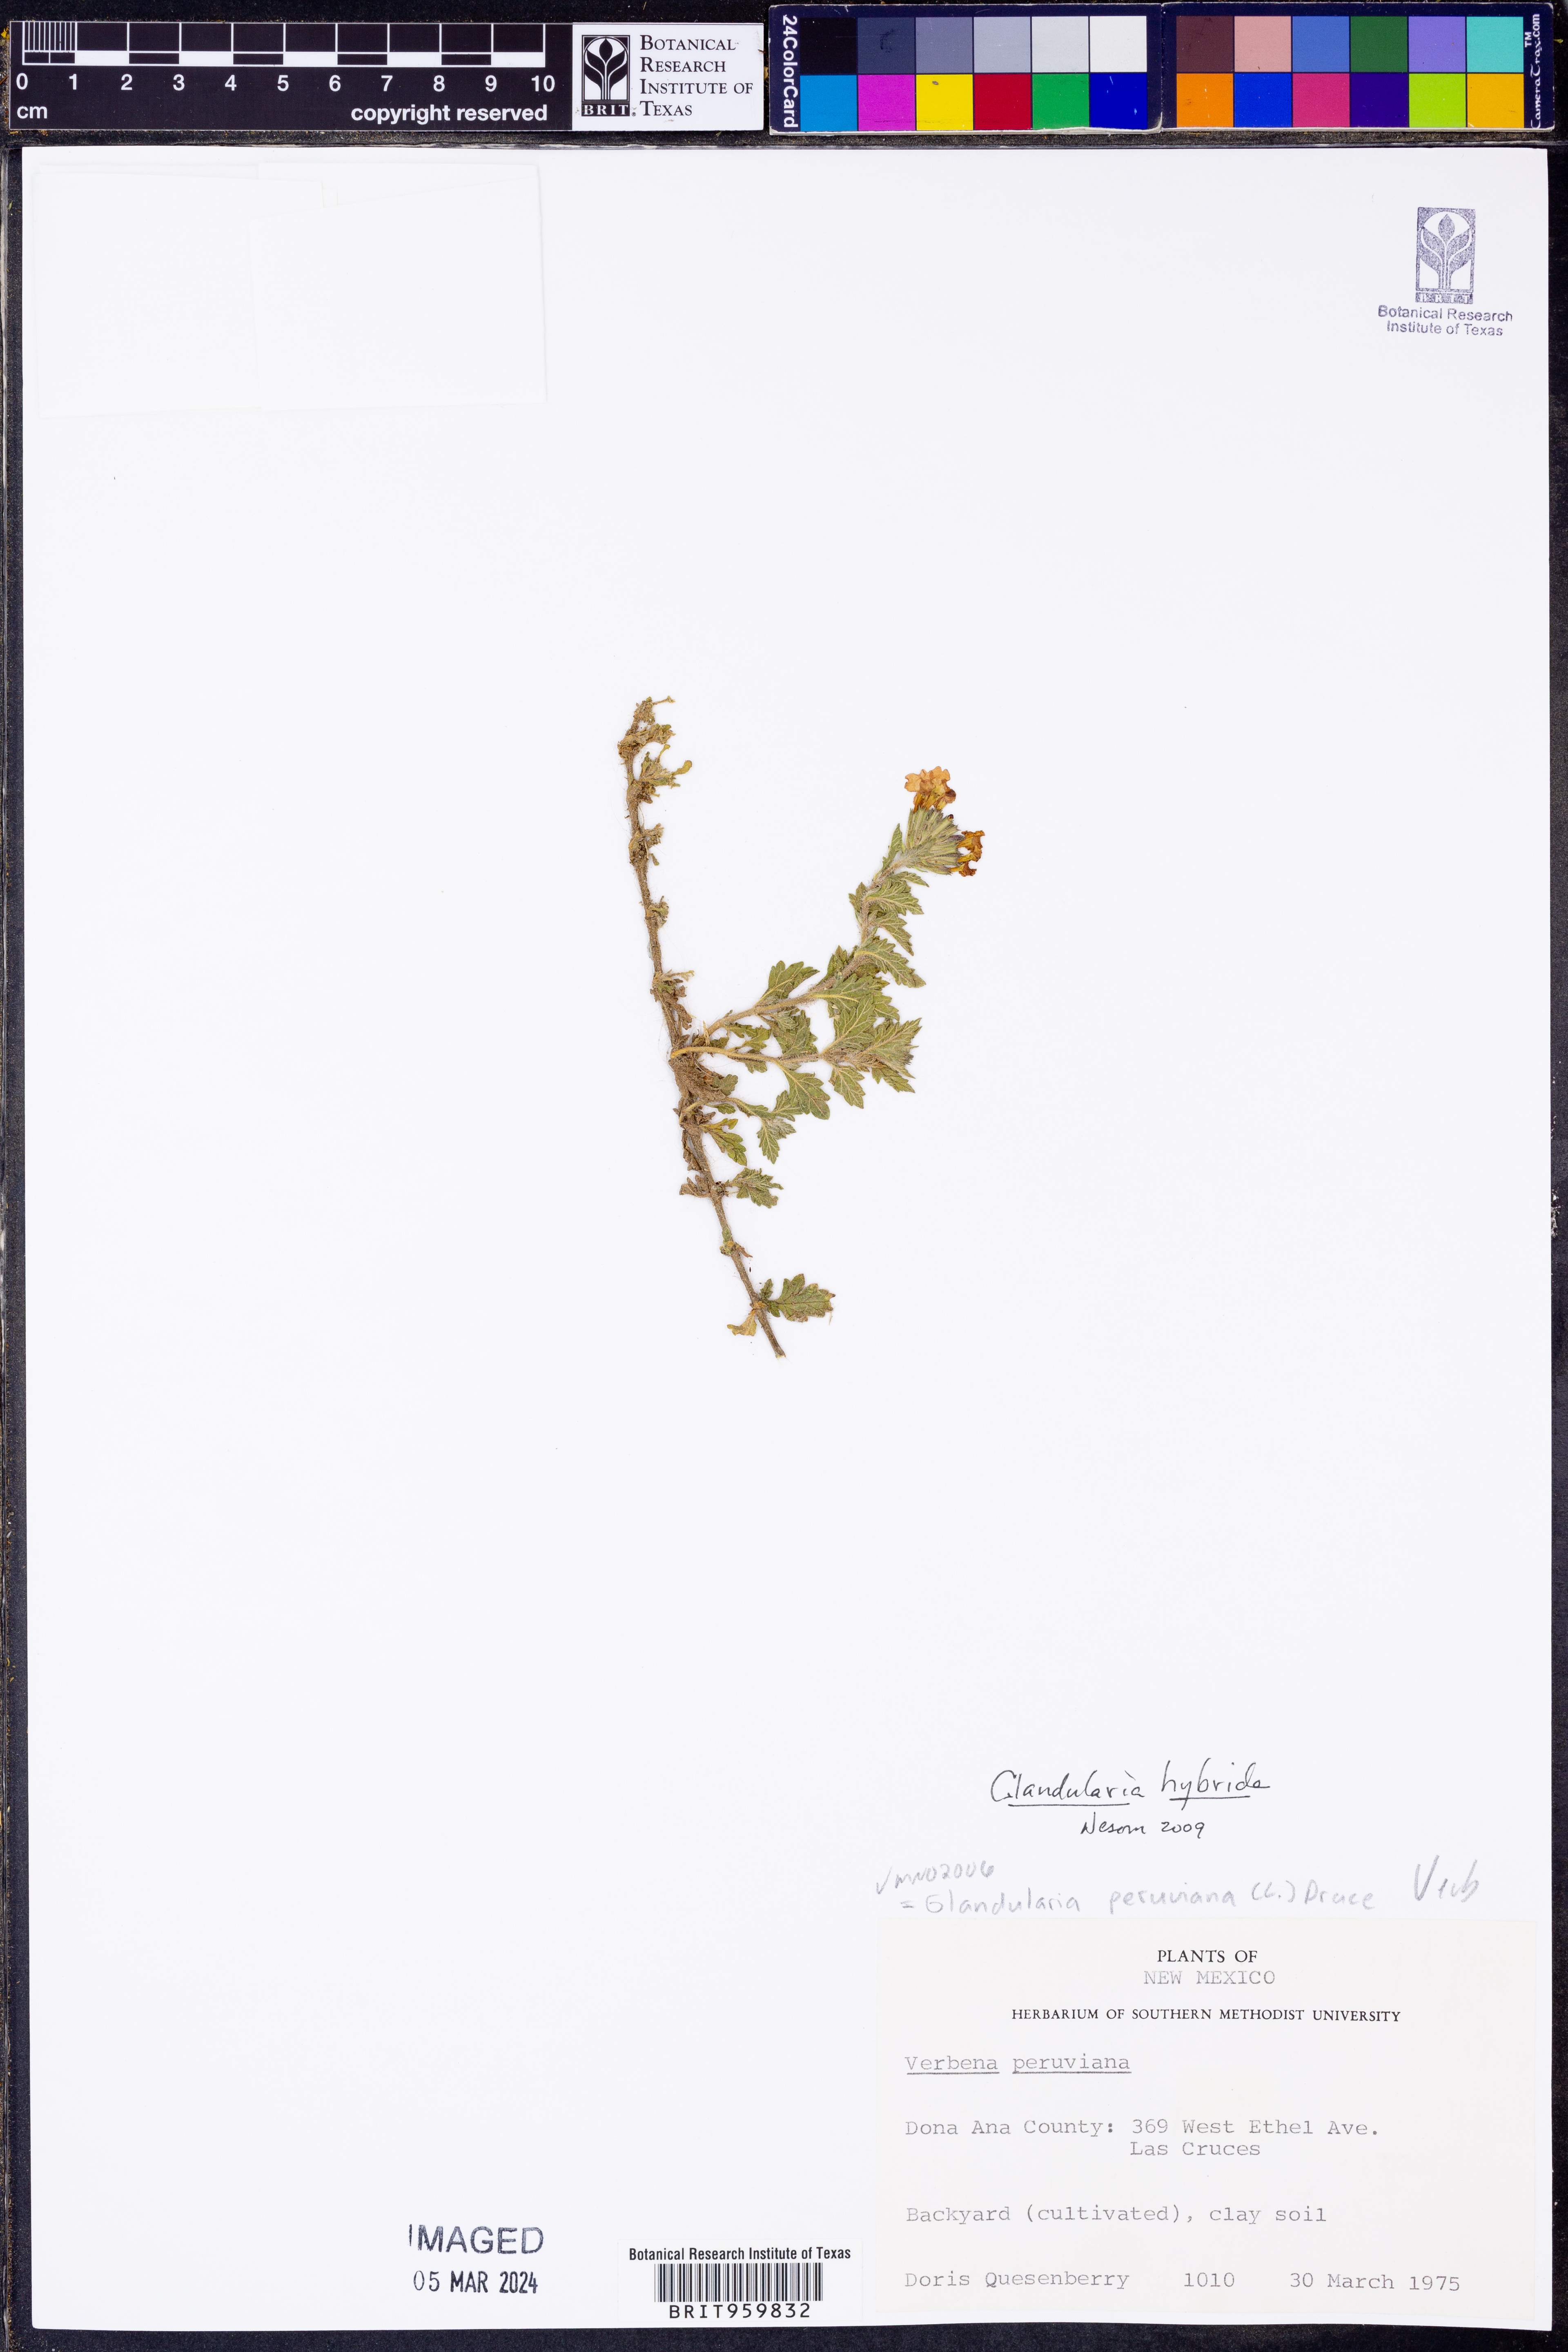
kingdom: Plantae
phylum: Tracheophyta
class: Magnoliopsida
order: Lamiales
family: Verbenaceae
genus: Verbena
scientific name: Verbena hybrida
